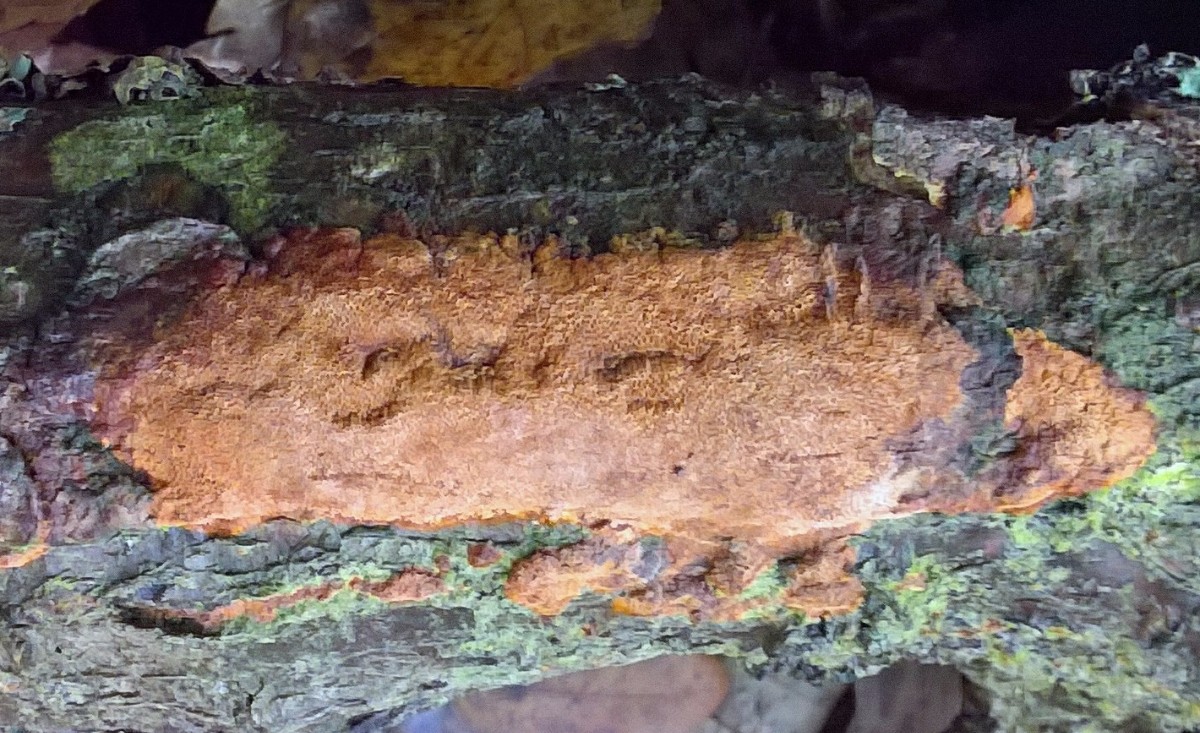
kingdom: Fungi
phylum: Basidiomycota
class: Agaricomycetes
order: Hymenochaetales
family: Hymenochaetaceae
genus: Fuscoporia
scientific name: Fuscoporia ferrea
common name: skorpe-ildporesvamp
